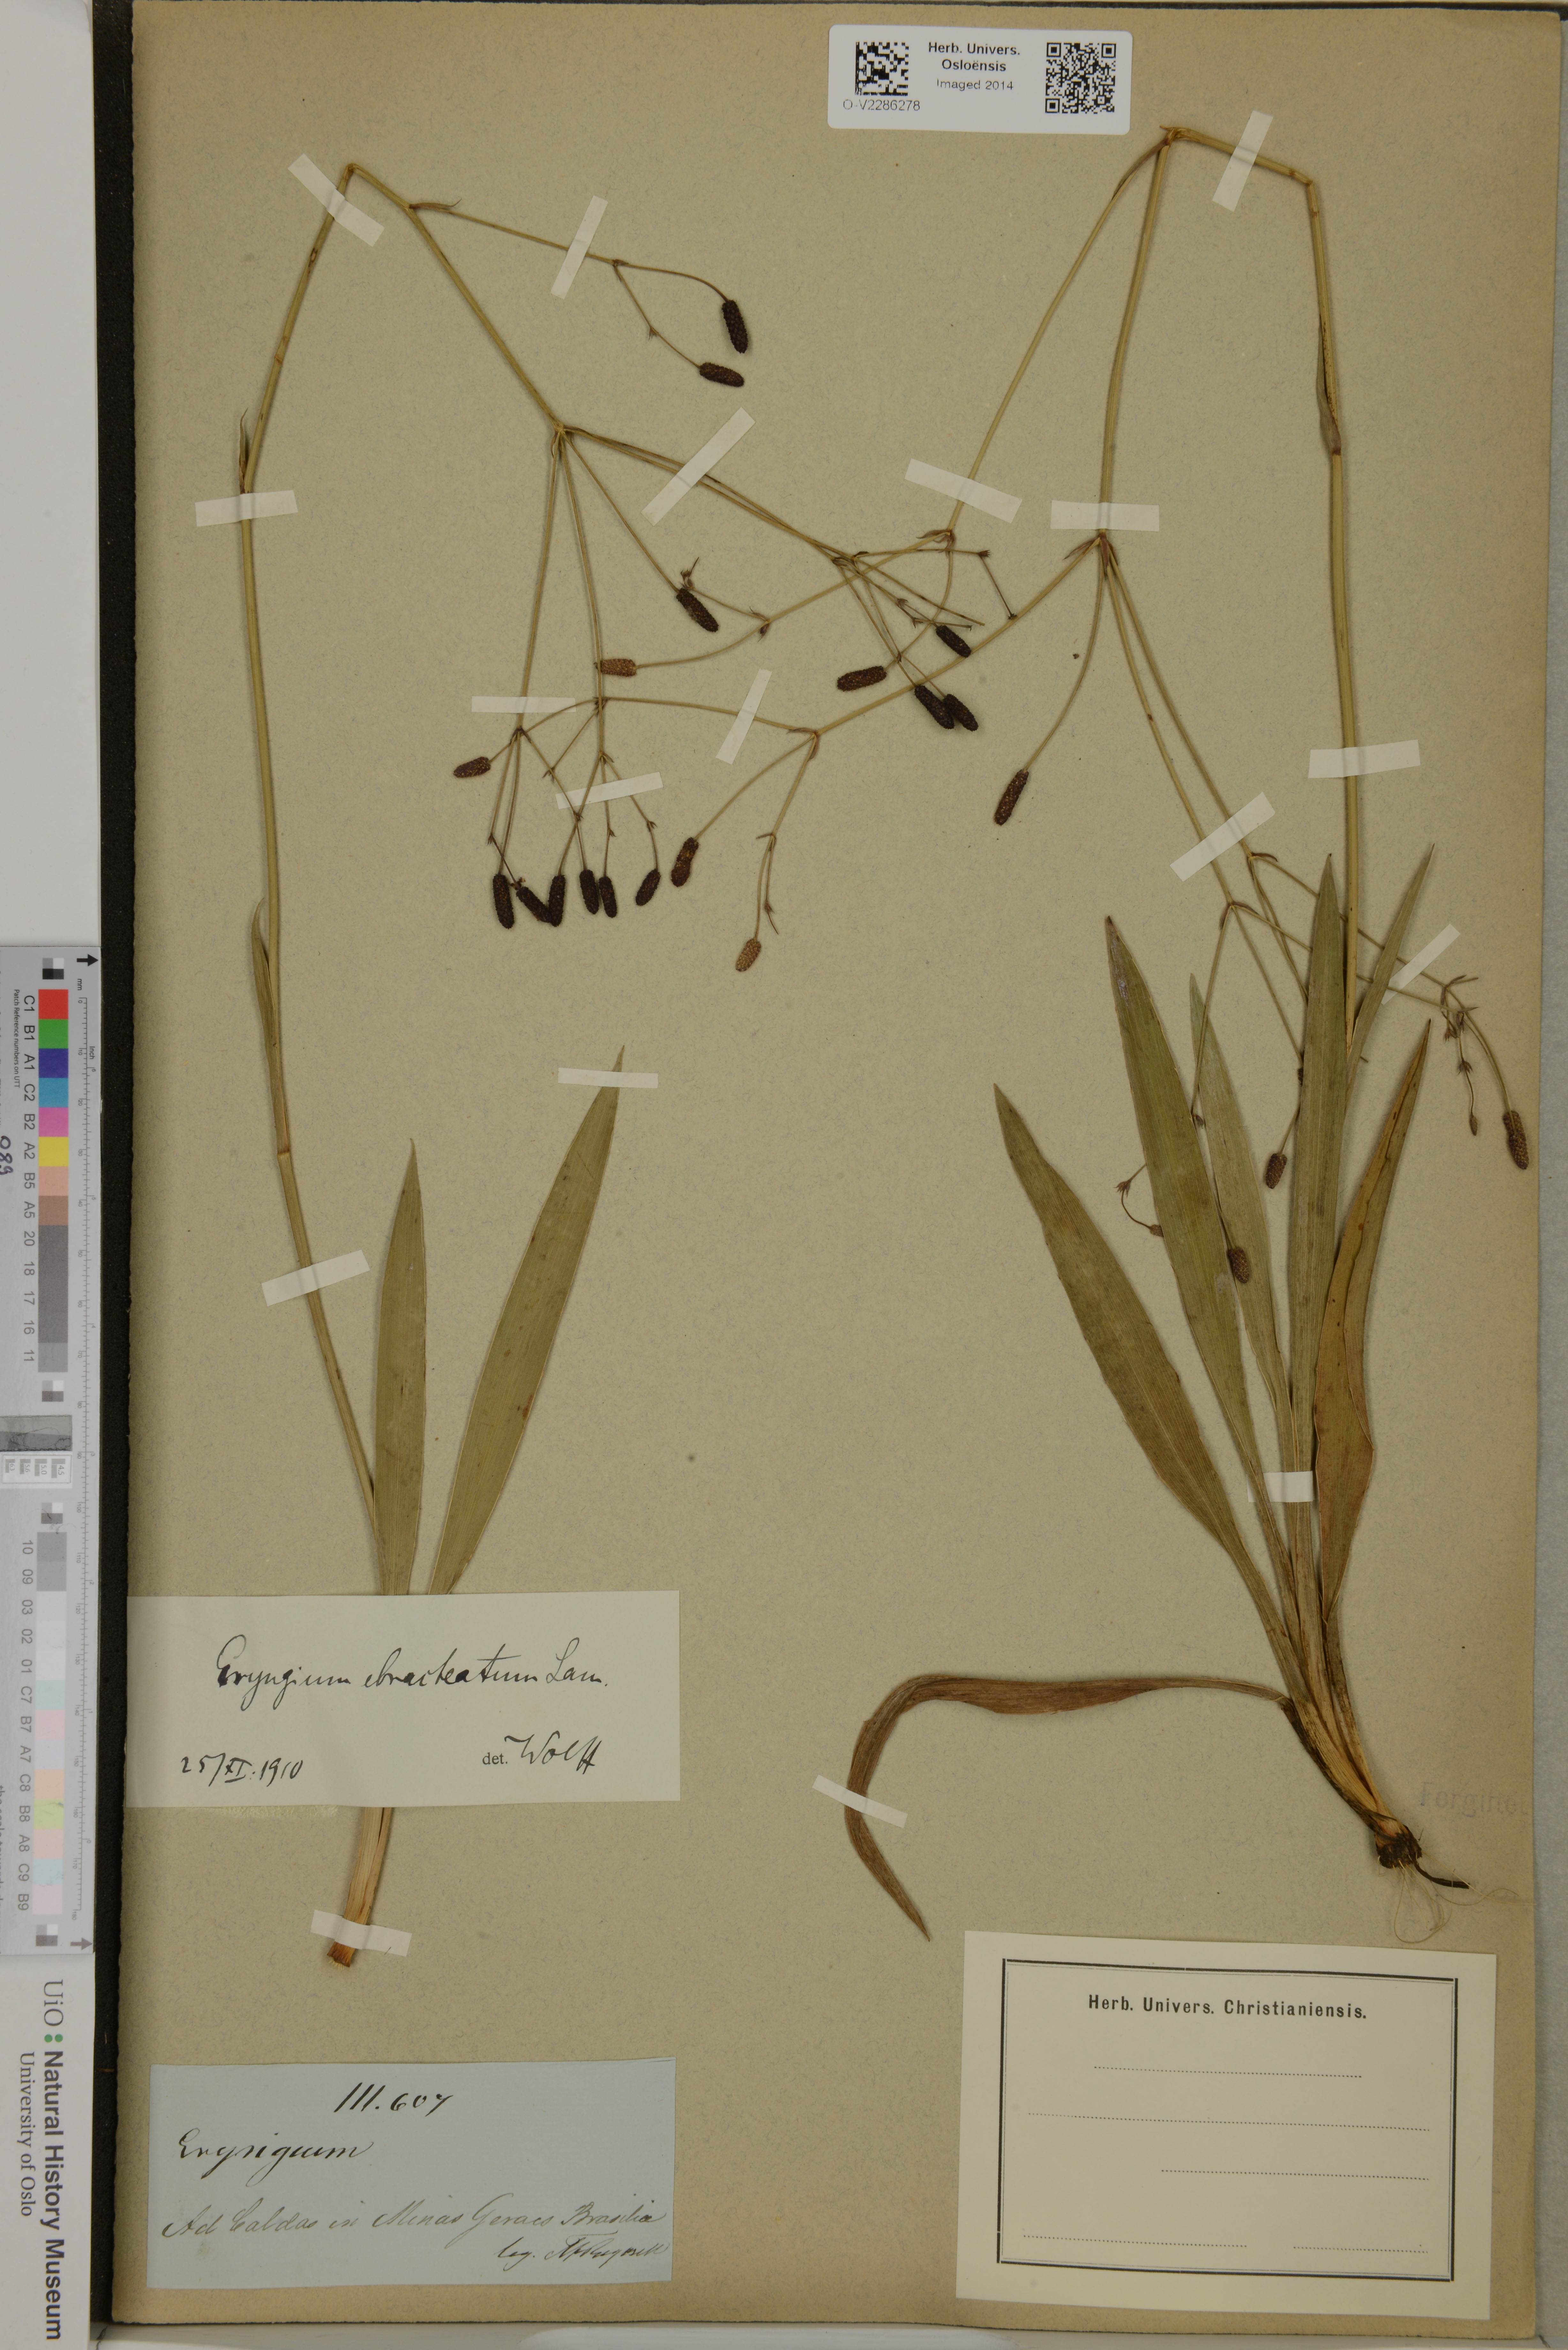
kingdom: Plantae
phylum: Tracheophyta
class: Magnoliopsida
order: Apiales
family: Apiaceae
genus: Eryngium
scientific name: Eryngium ebracteatum
